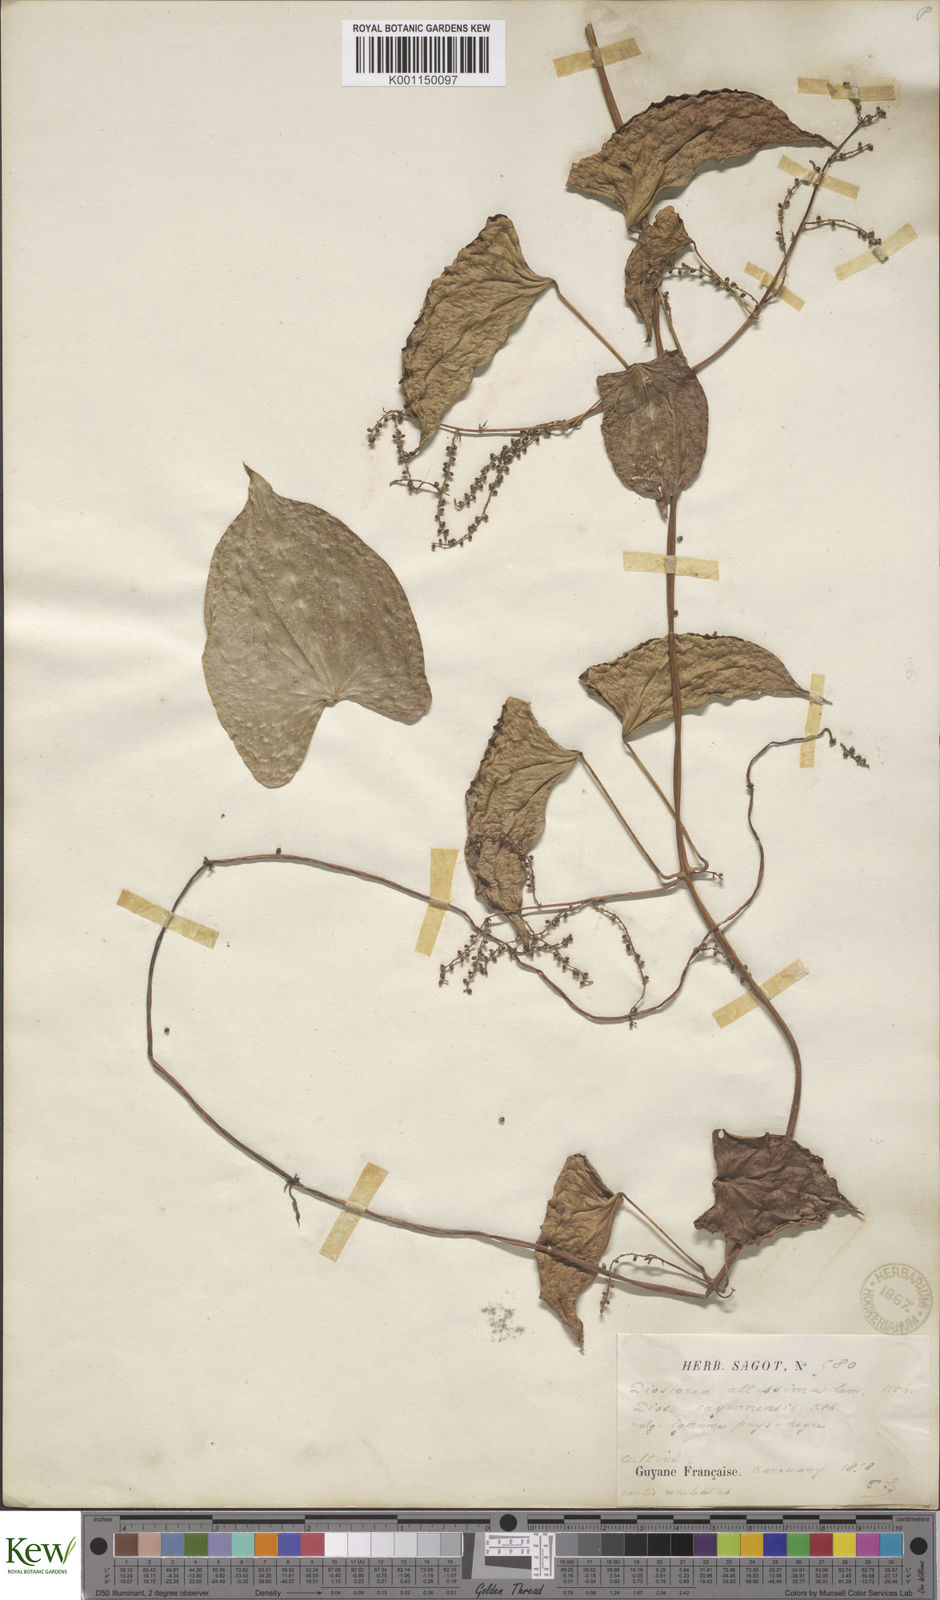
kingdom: Plantae
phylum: Tracheophyta
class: Liliopsida
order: Dioscoreales
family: Dioscoreaceae
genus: Dioscorea
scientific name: Dioscorea cayenensis
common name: Attoto yam
